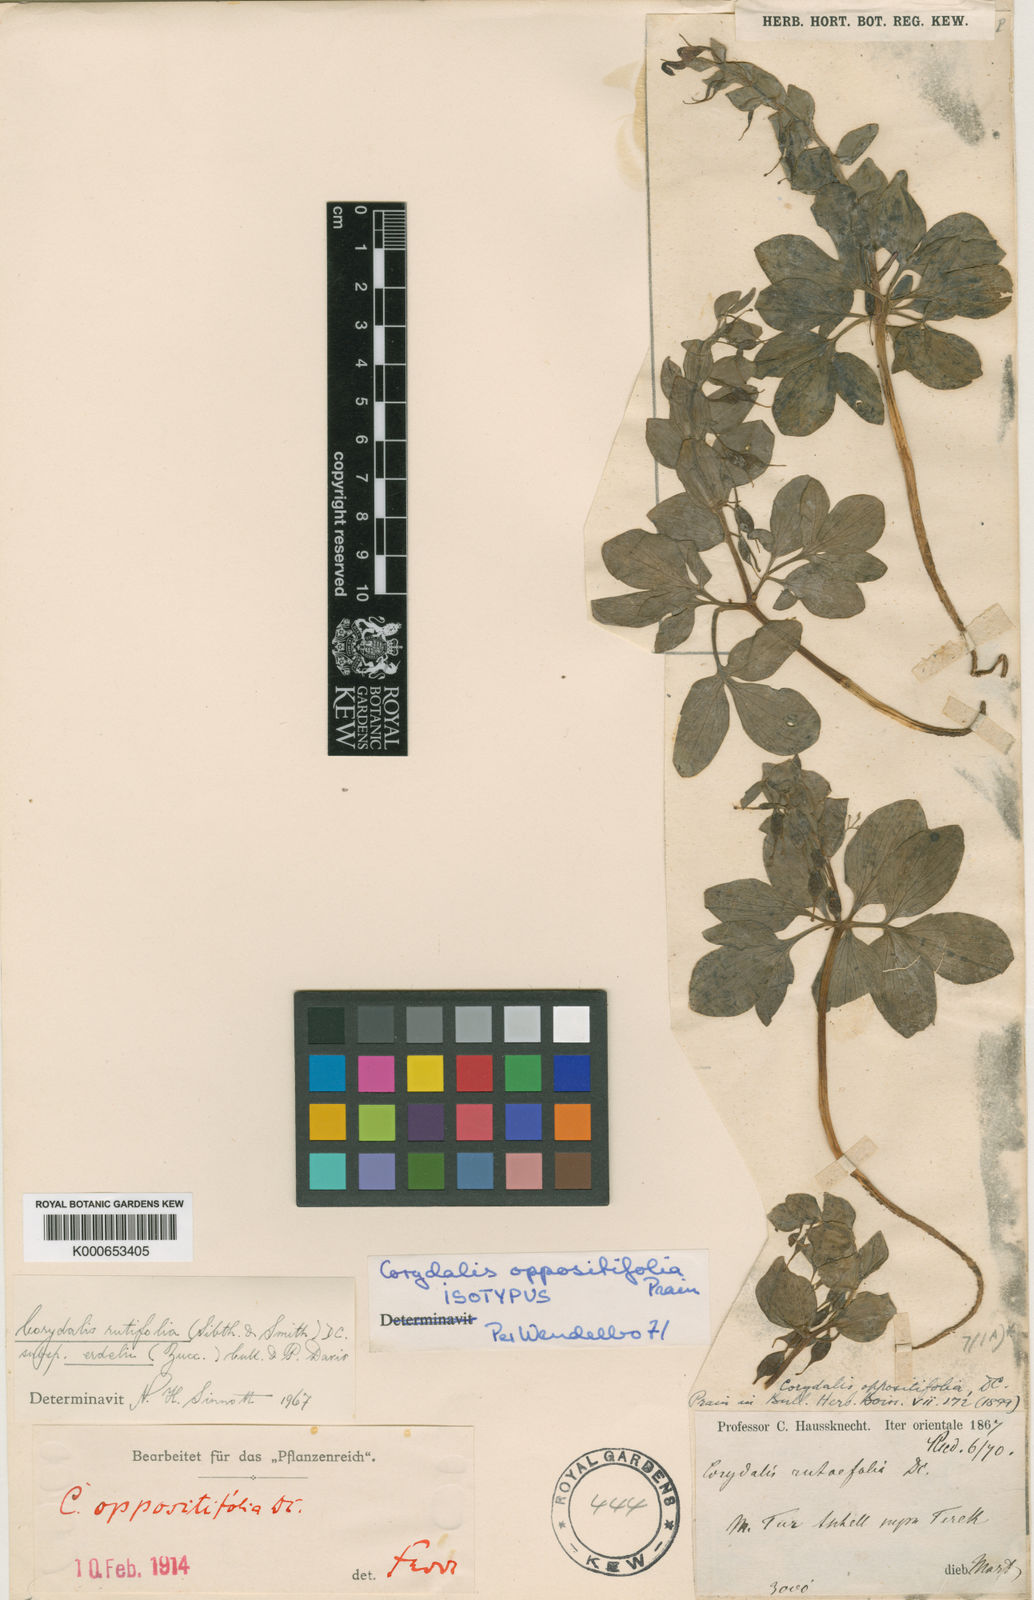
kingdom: Plantae
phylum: Tracheophyta
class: Magnoliopsida
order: Ranunculales
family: Papaveraceae
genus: Corydalis
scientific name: Corydalis rutifolia
